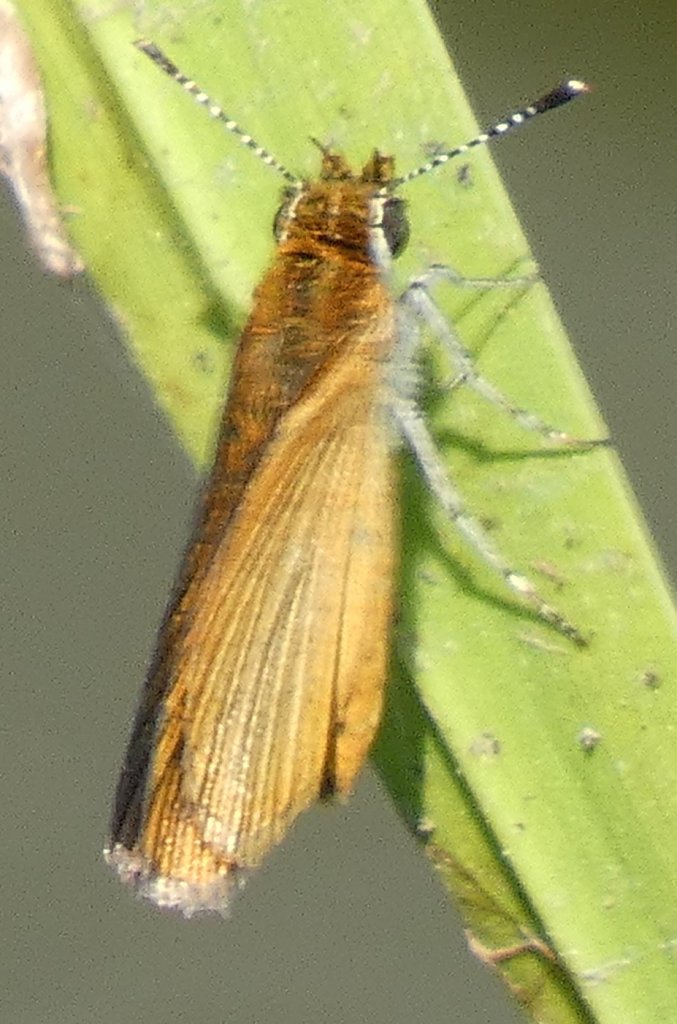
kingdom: Animalia
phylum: Arthropoda
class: Insecta
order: Lepidoptera
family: Hesperiidae
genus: Ancyloxypha
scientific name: Ancyloxypha numitor
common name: Least Skipper
